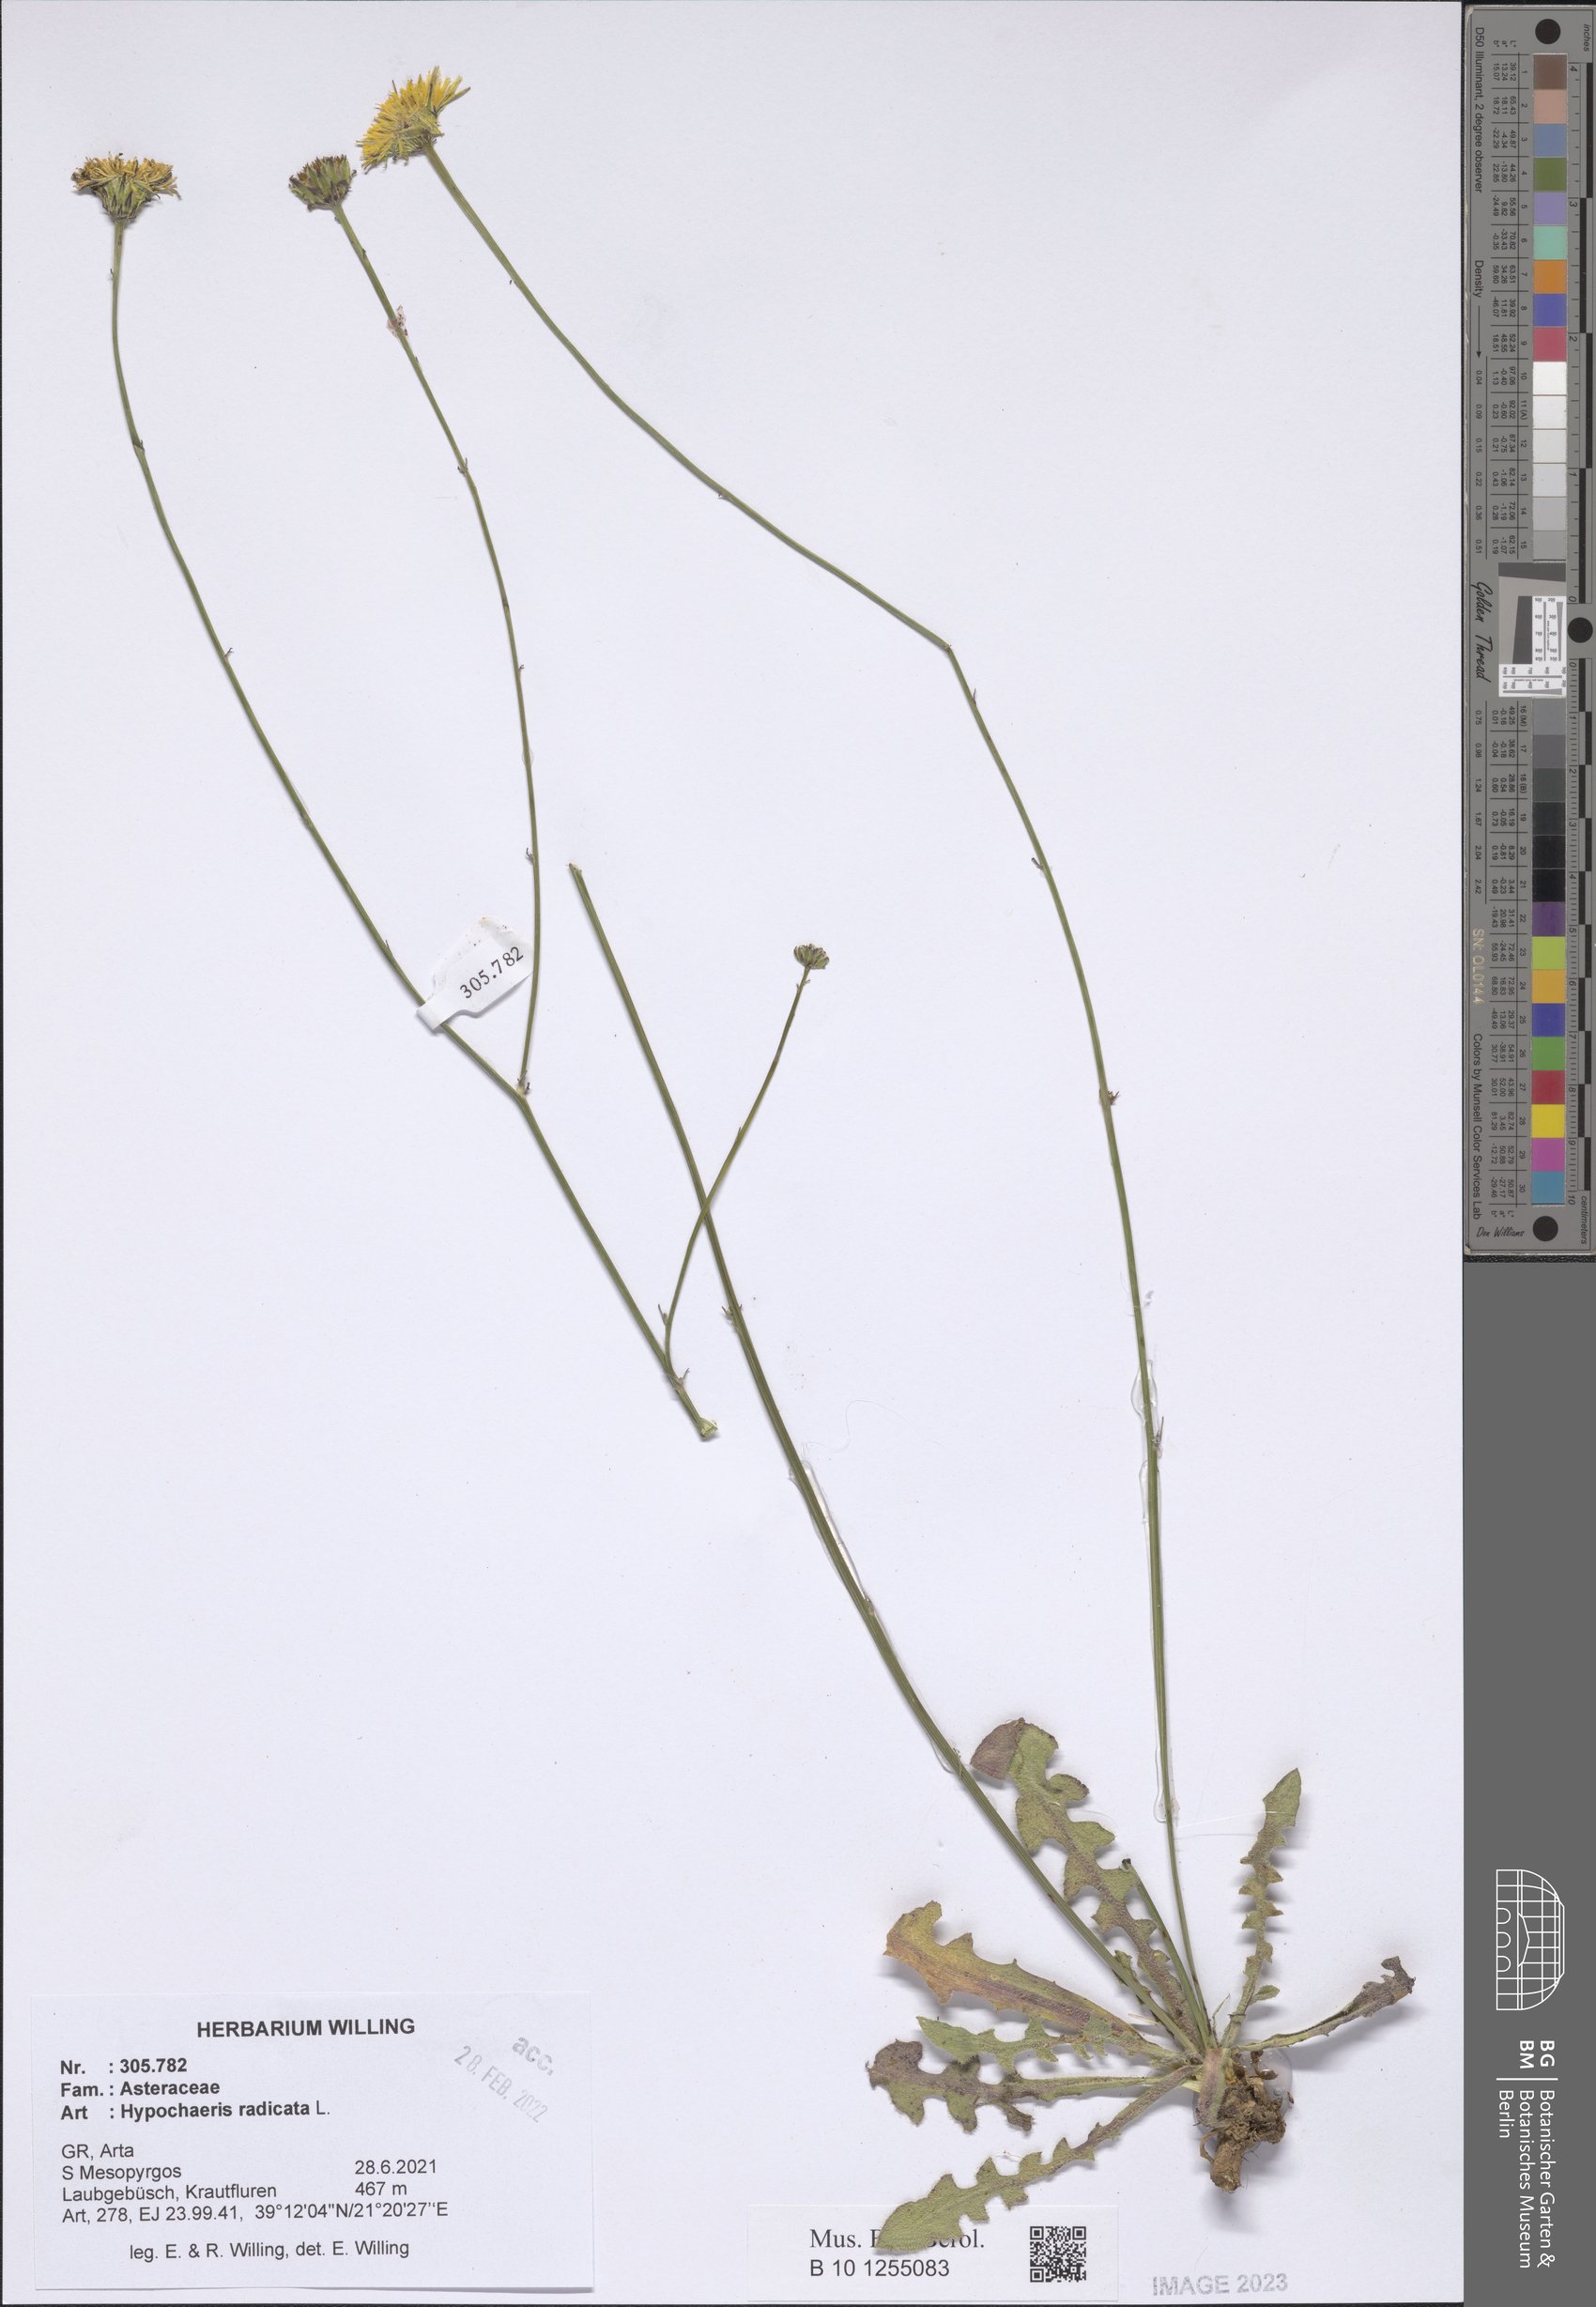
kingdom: Plantae
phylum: Tracheophyta
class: Magnoliopsida
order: Asterales
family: Asteraceae
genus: Hypochaeris
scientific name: Hypochaeris radicata
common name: Flatweed
